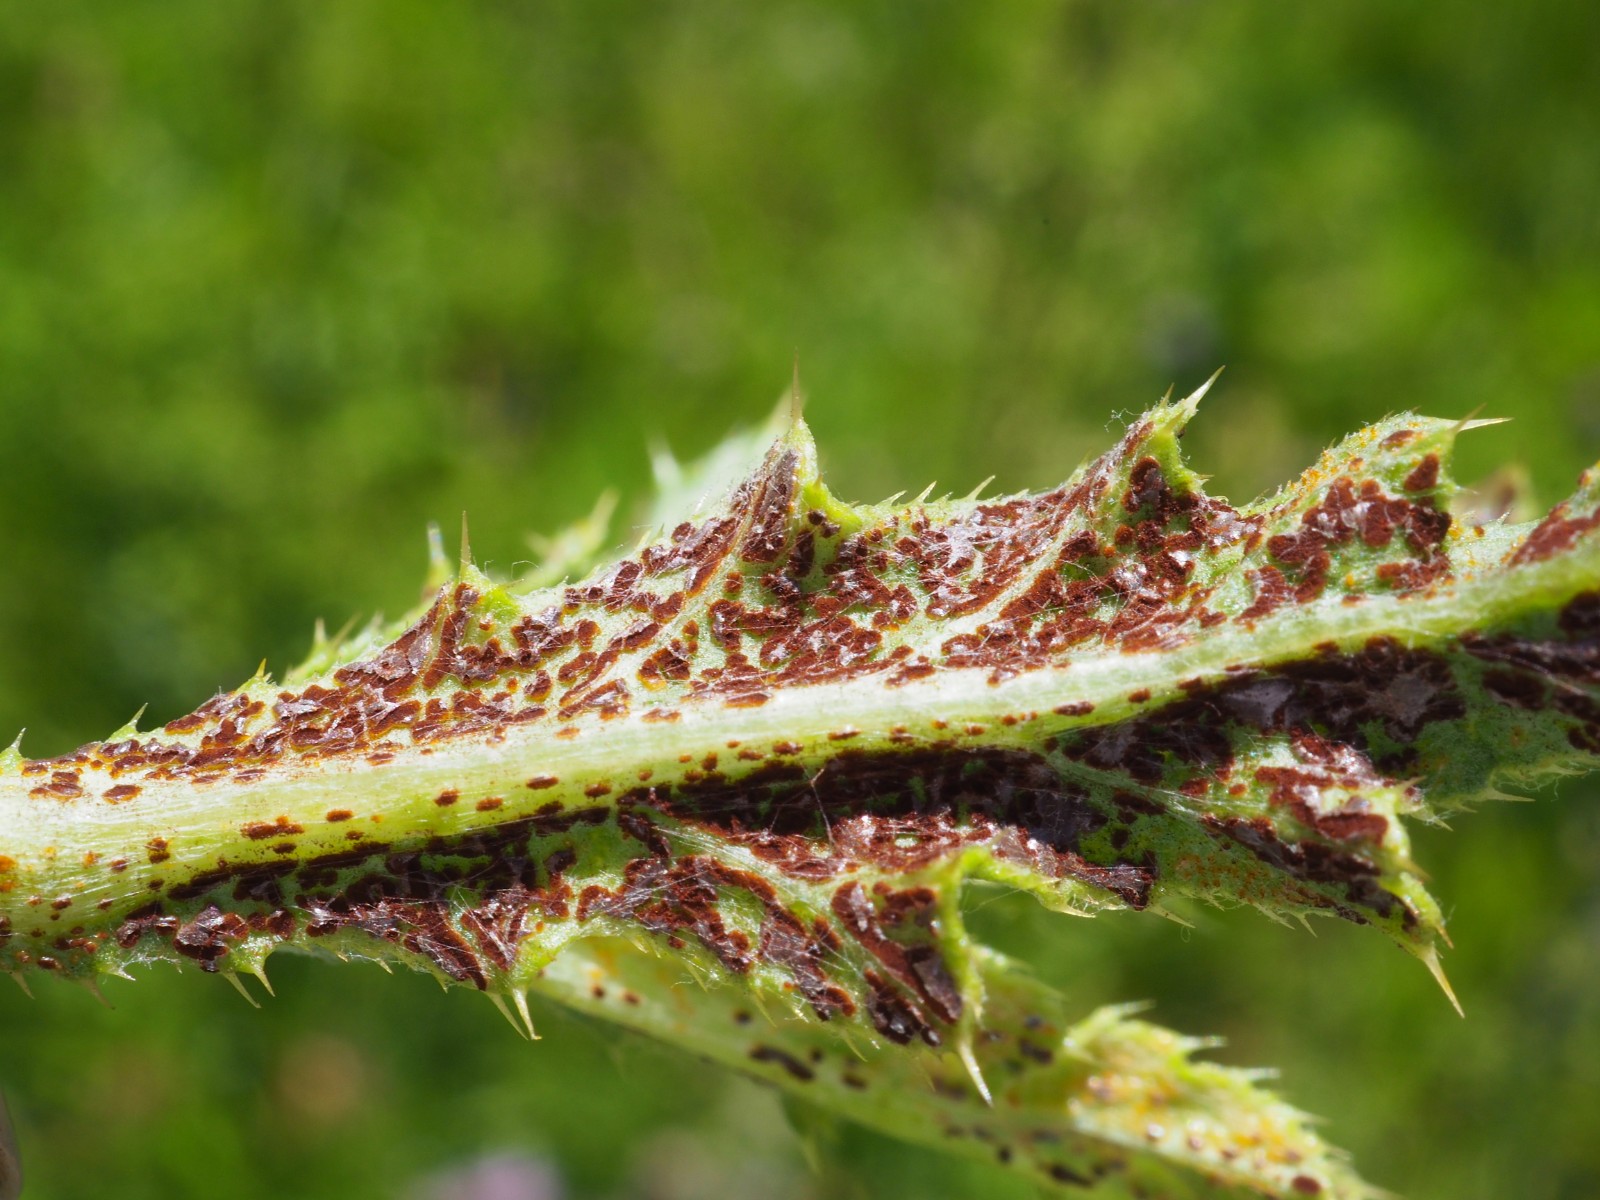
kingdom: Fungi
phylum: Basidiomycota
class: Pucciniomycetes
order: Pucciniales
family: Pucciniaceae
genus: Puccinia
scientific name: Puccinia suaveolens
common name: tidsel-tvecellerust
